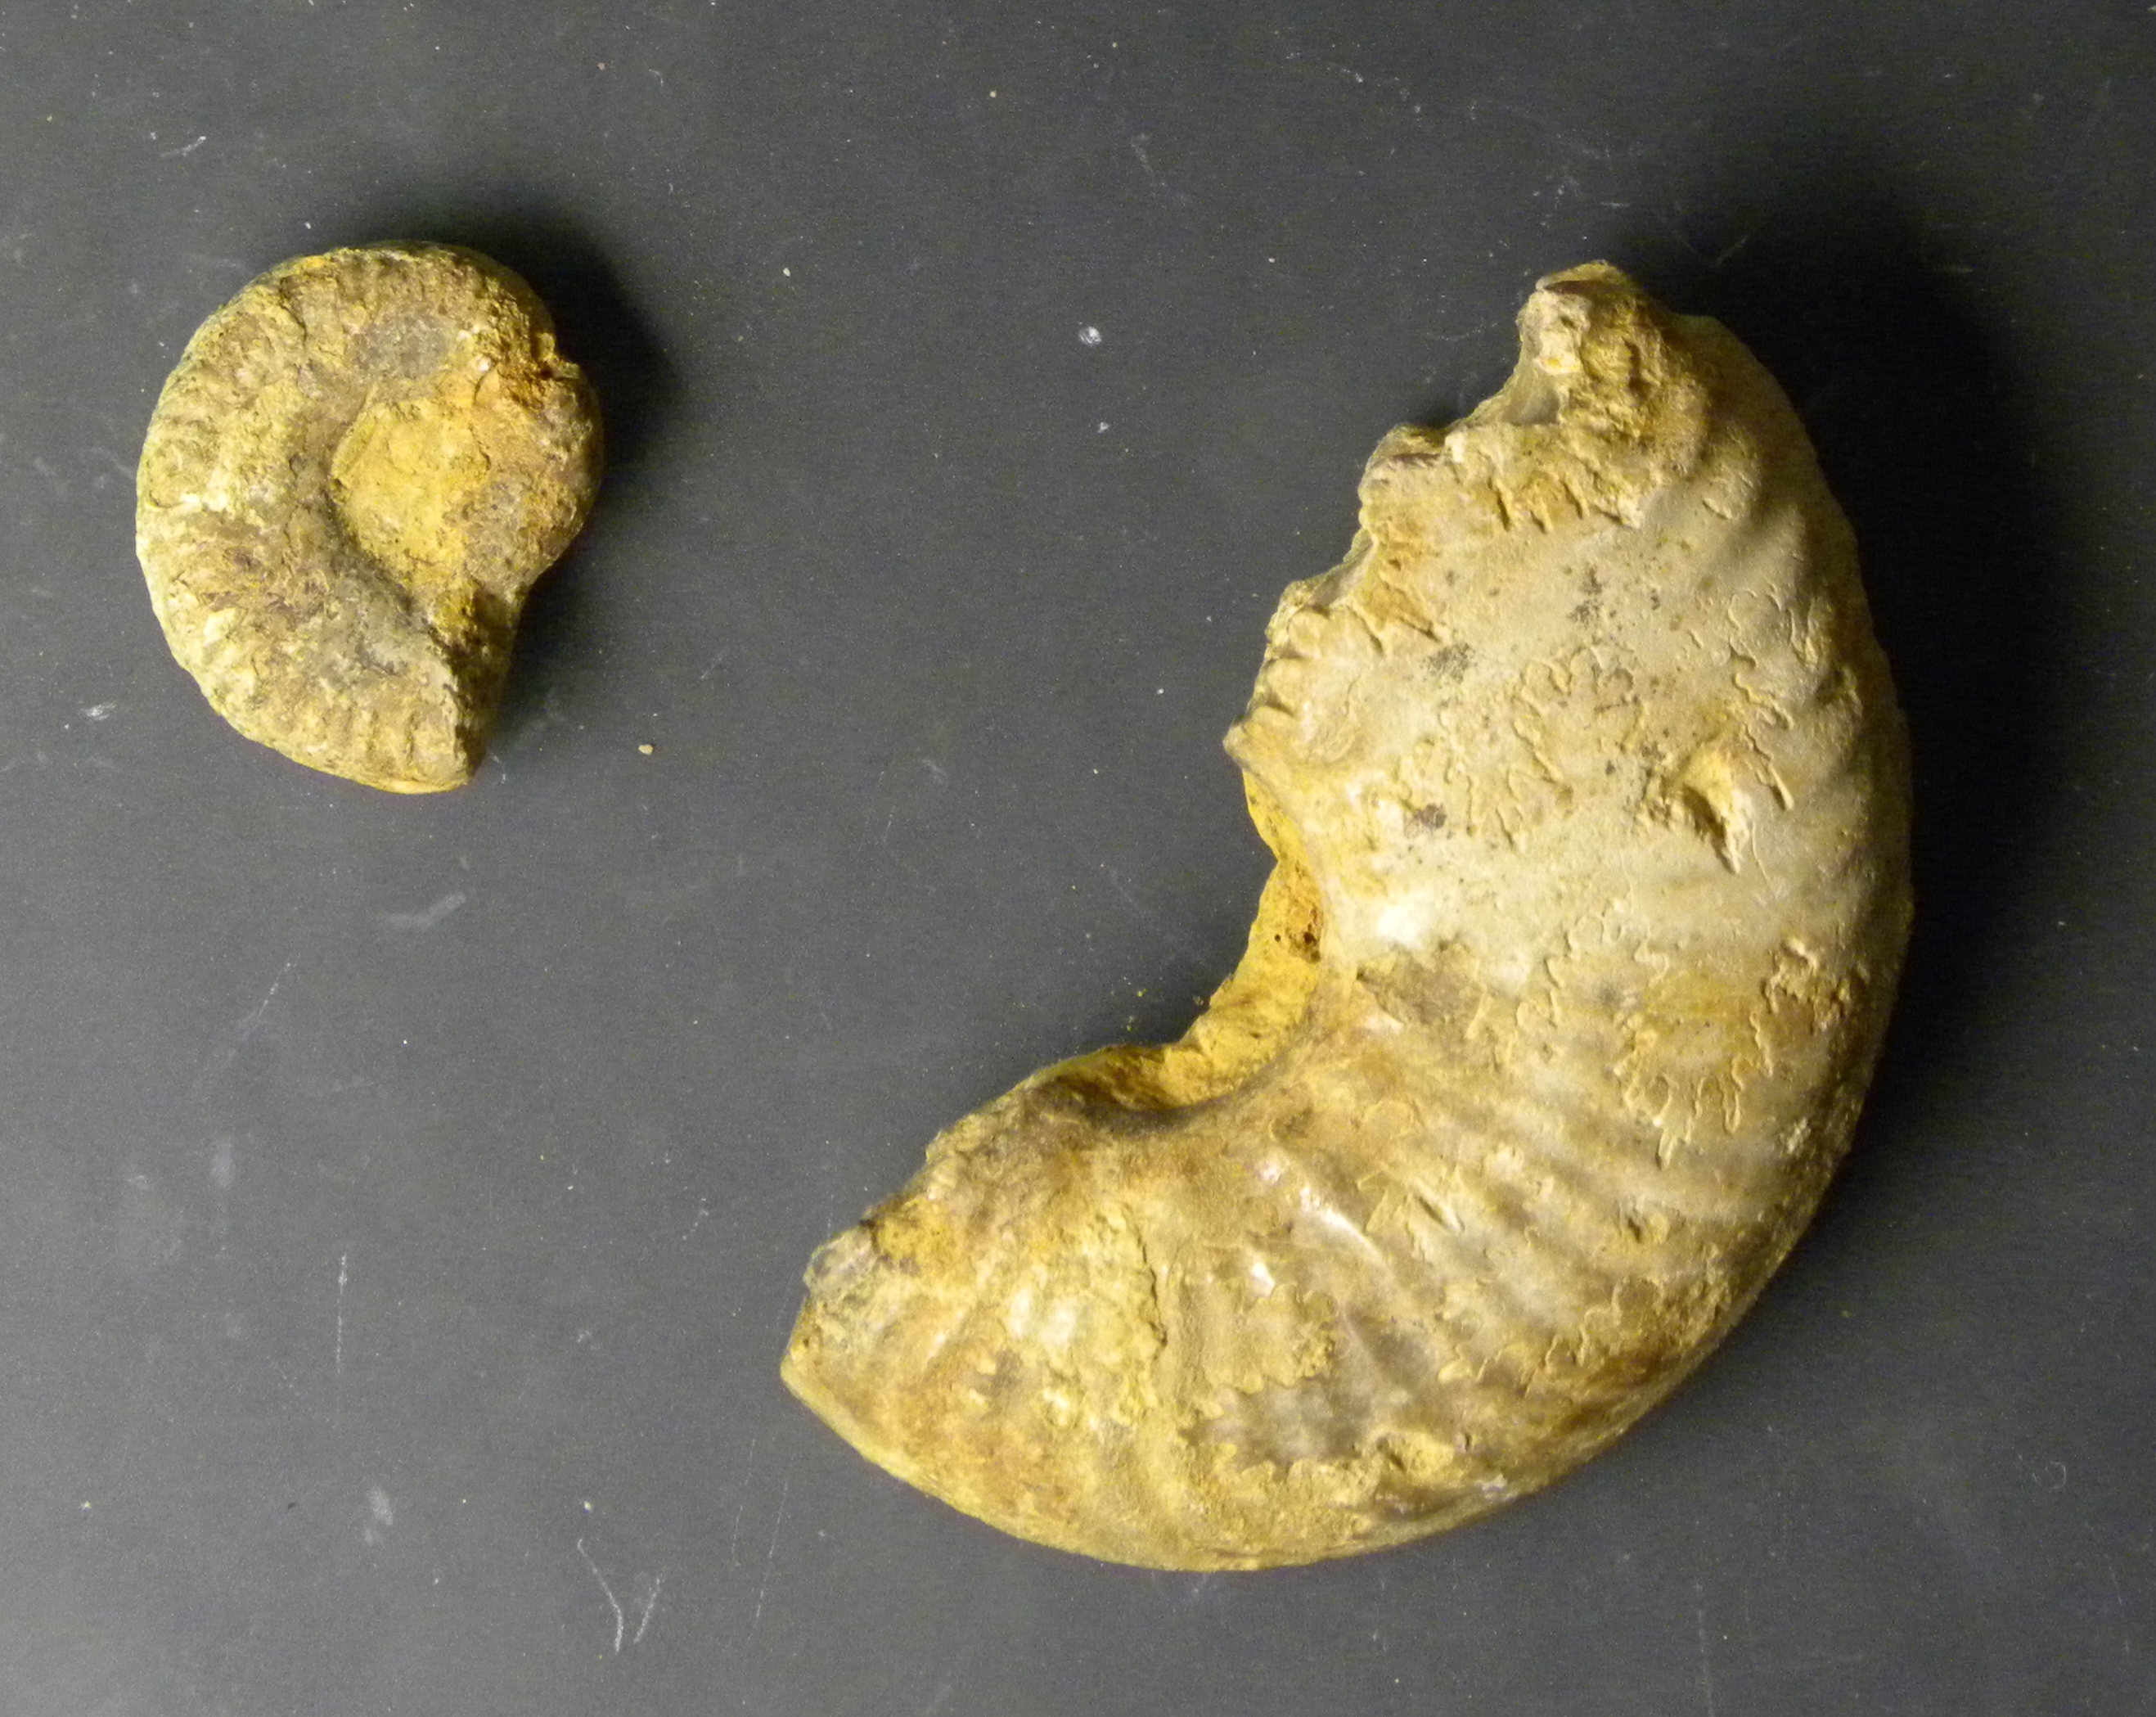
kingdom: Animalia
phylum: Mollusca
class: Cephalopoda
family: Phymatoceratidae
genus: Haugia
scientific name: Haugia
